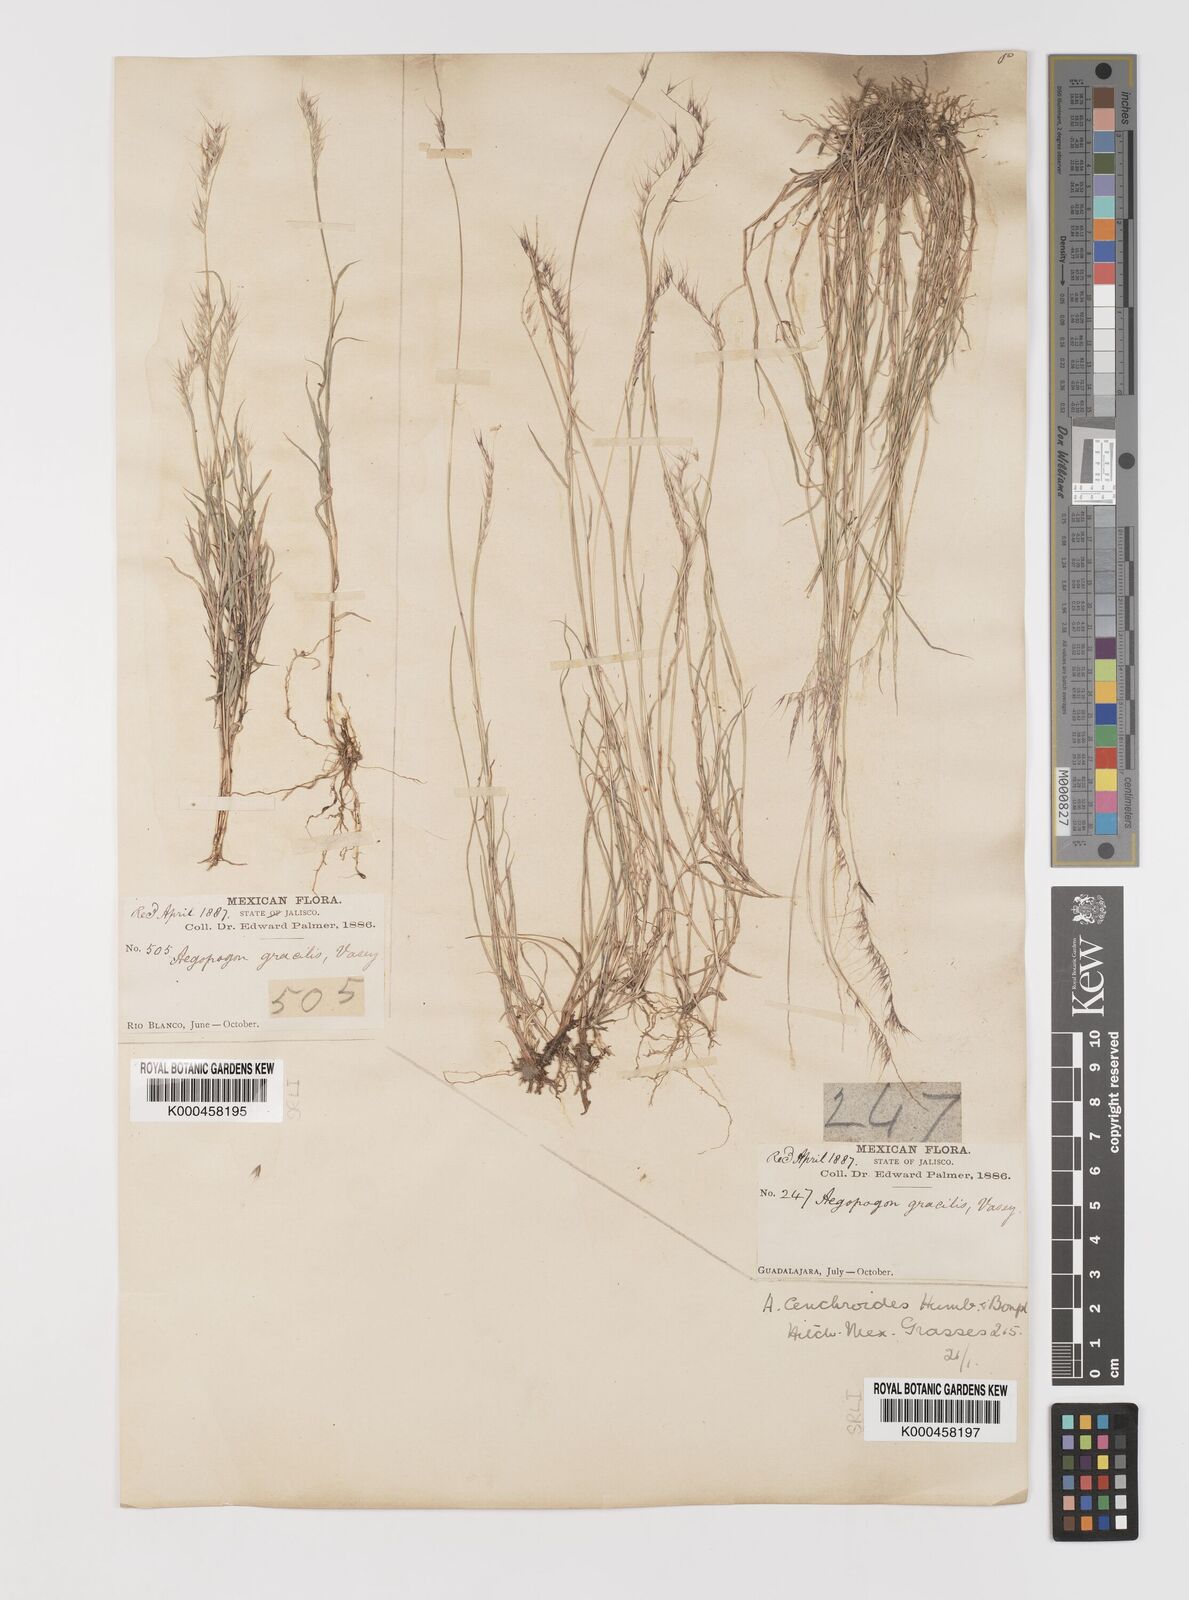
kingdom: Plantae
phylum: Tracheophyta
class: Liliopsida
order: Poales
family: Poaceae
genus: Muhlenbergia
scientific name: Muhlenbergia
